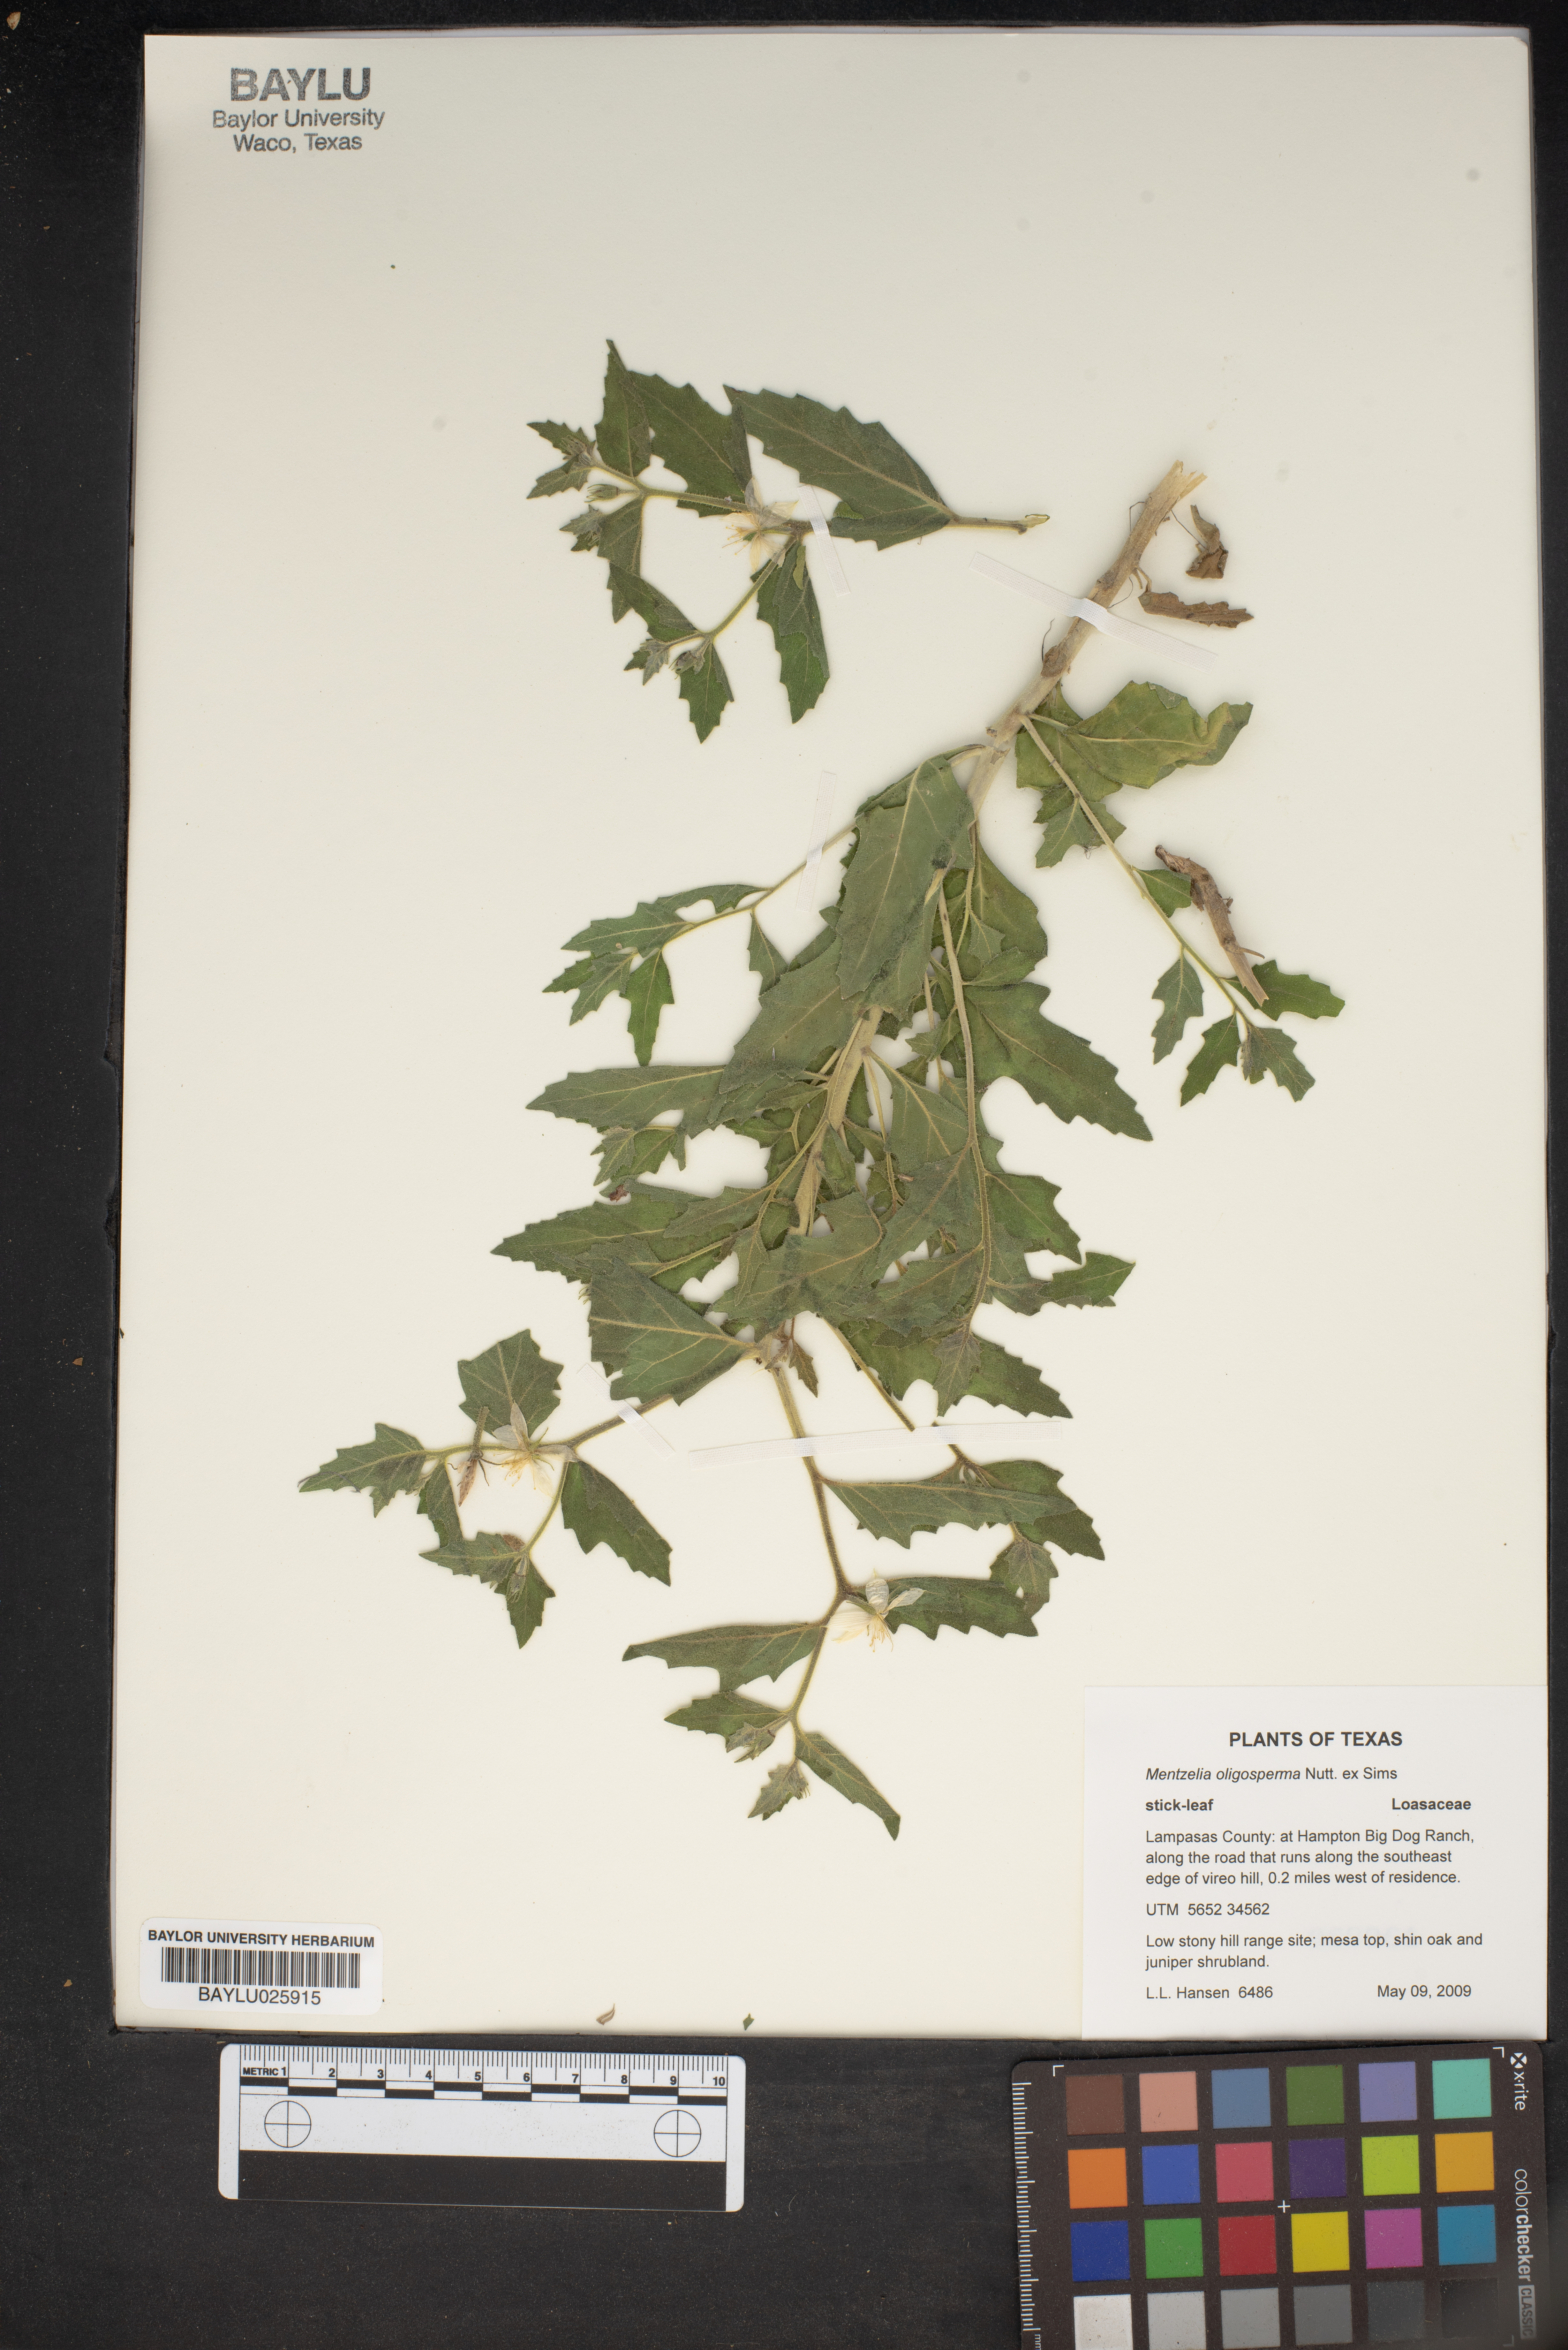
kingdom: Plantae
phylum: Tracheophyta
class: Magnoliopsida
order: Cornales
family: Loasaceae
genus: Mentzelia
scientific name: Mentzelia oligosperma
